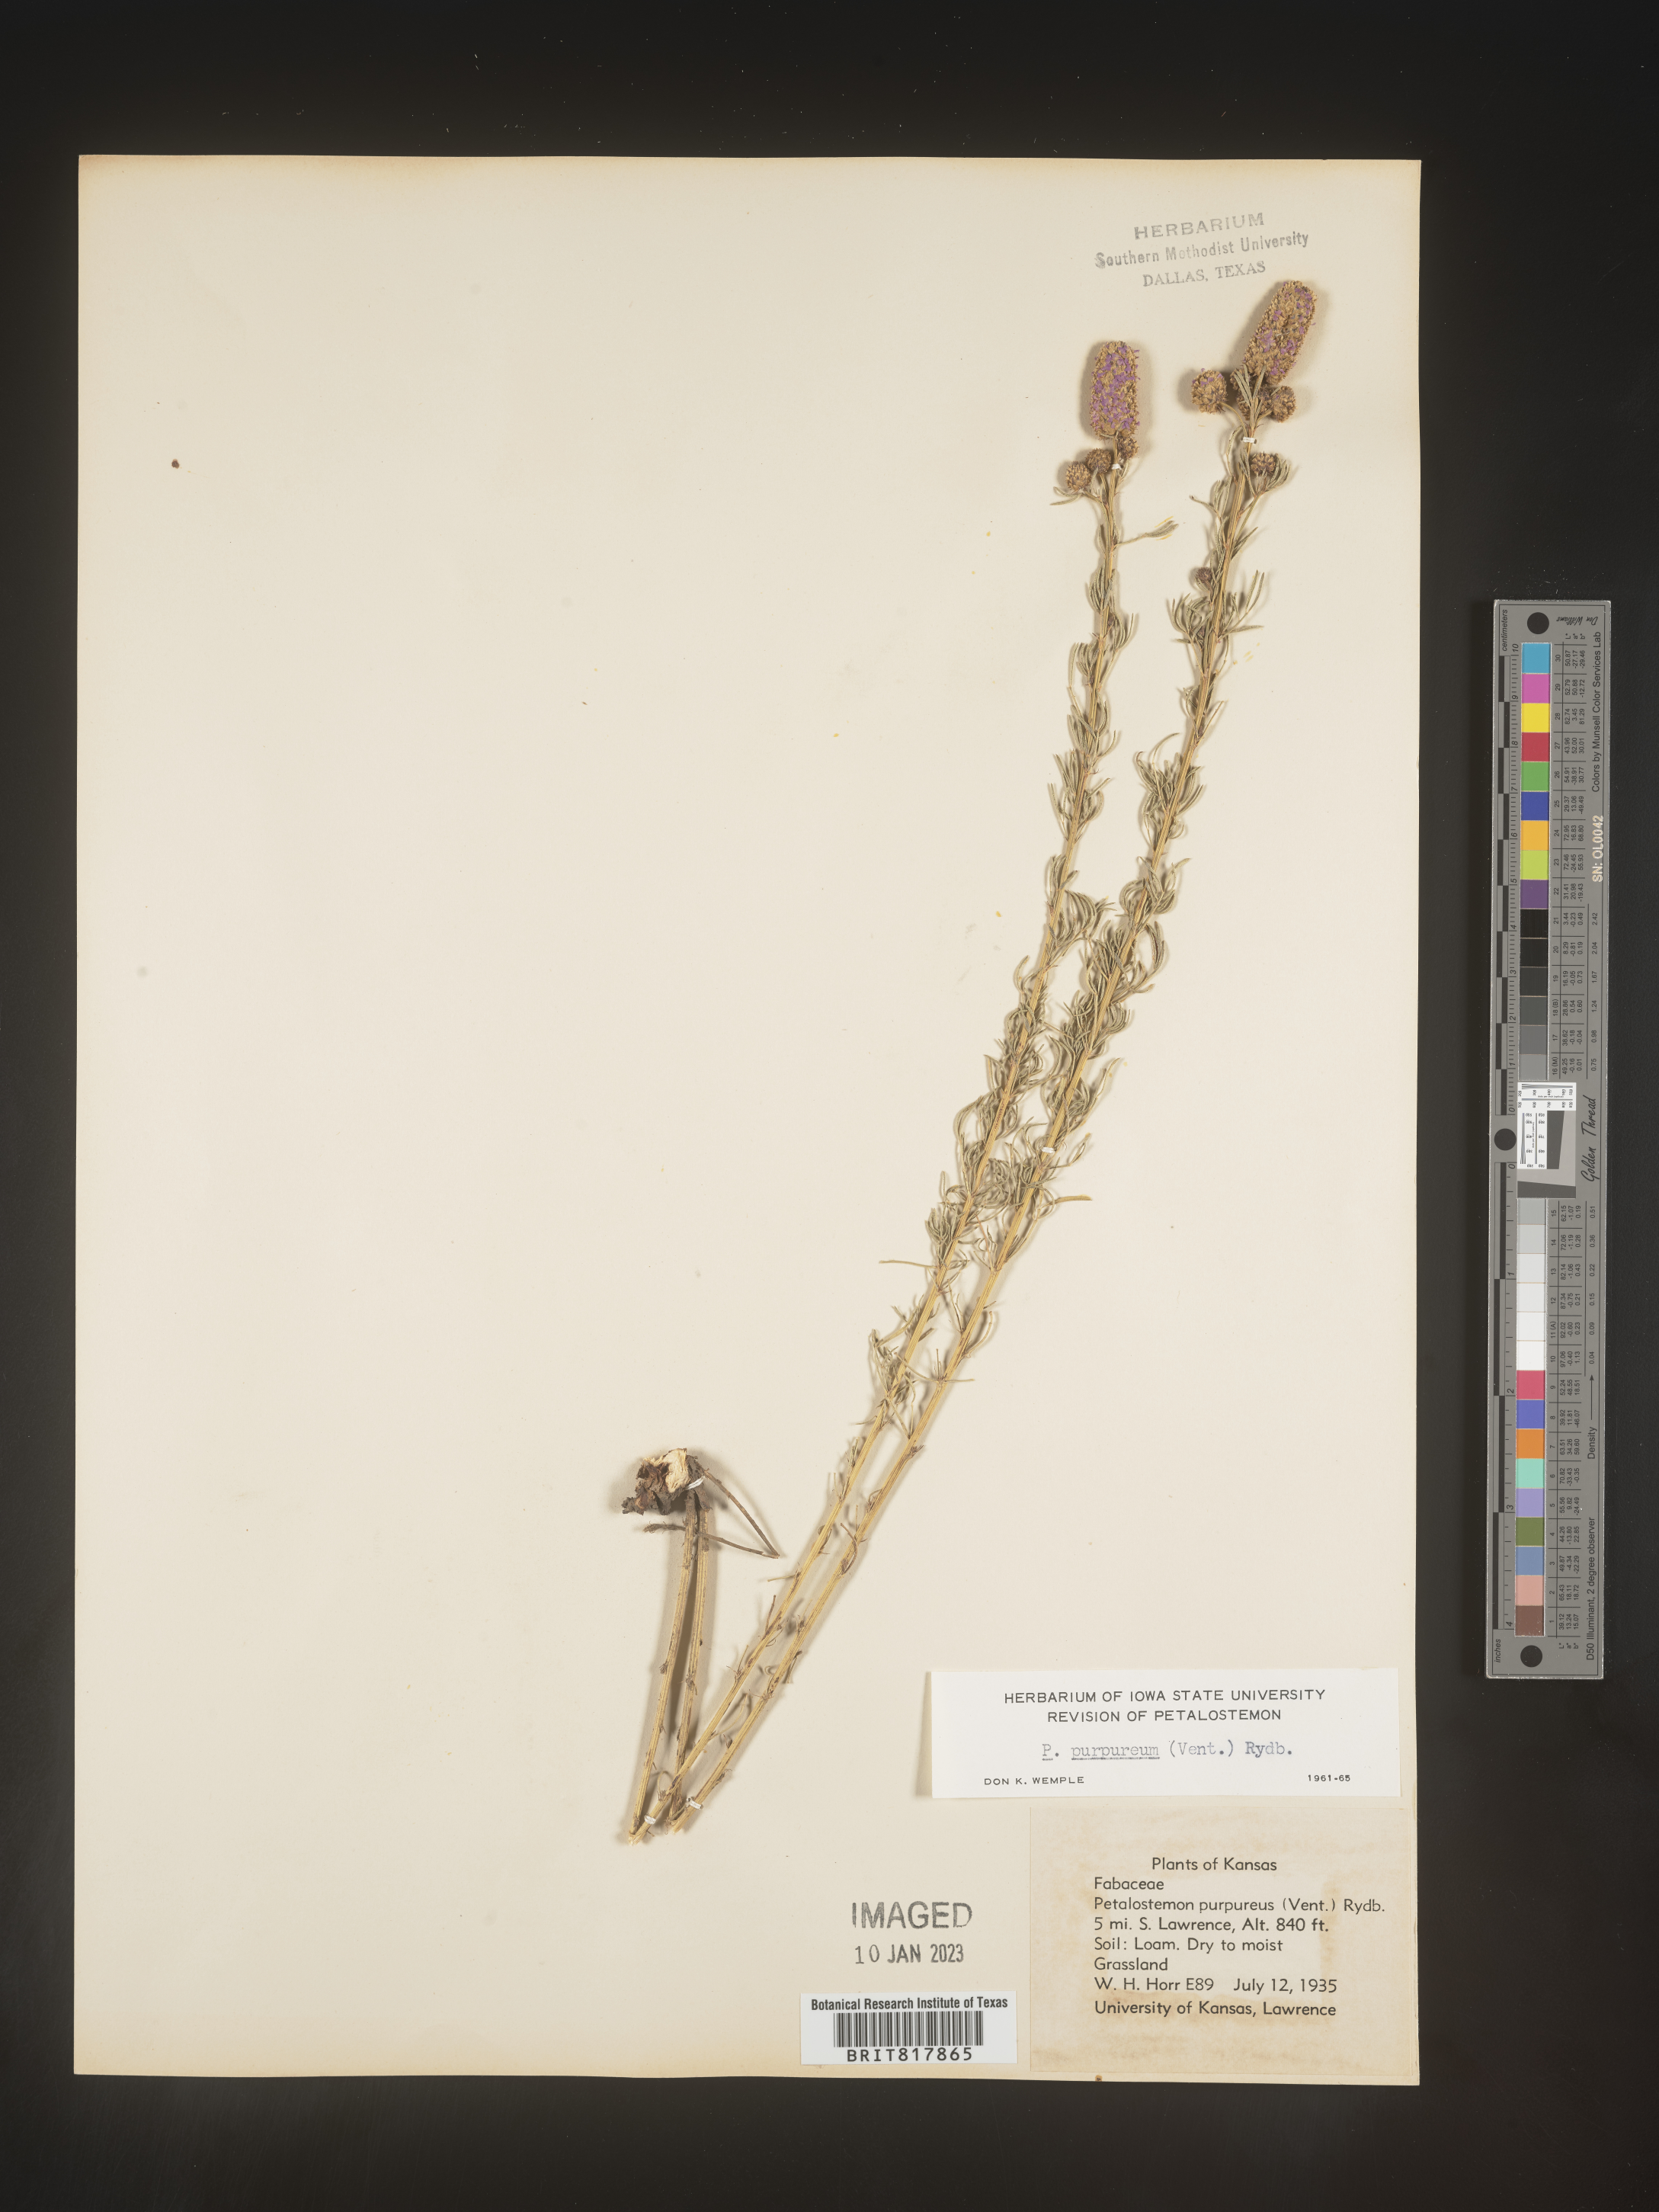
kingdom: Plantae
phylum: Tracheophyta
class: Magnoliopsida
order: Fabales
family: Fabaceae
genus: Dalea
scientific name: Dalea purpurea
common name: Purple prairie-clover
